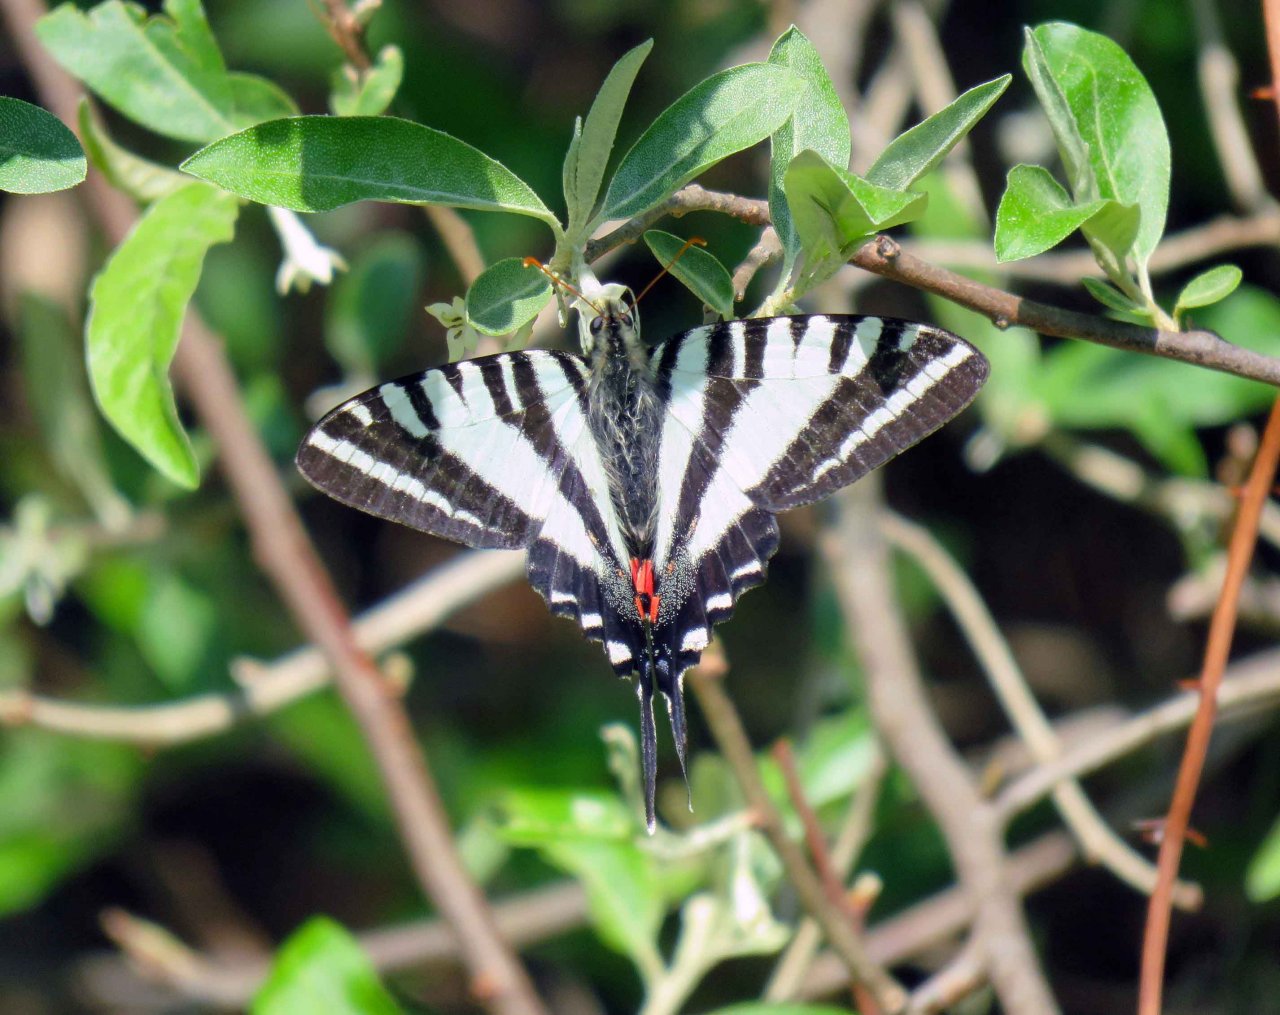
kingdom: Animalia
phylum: Arthropoda
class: Insecta
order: Lepidoptera
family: Papilionidae
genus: Protographium
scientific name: Protographium marcellus
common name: Zebra Swallowtail
